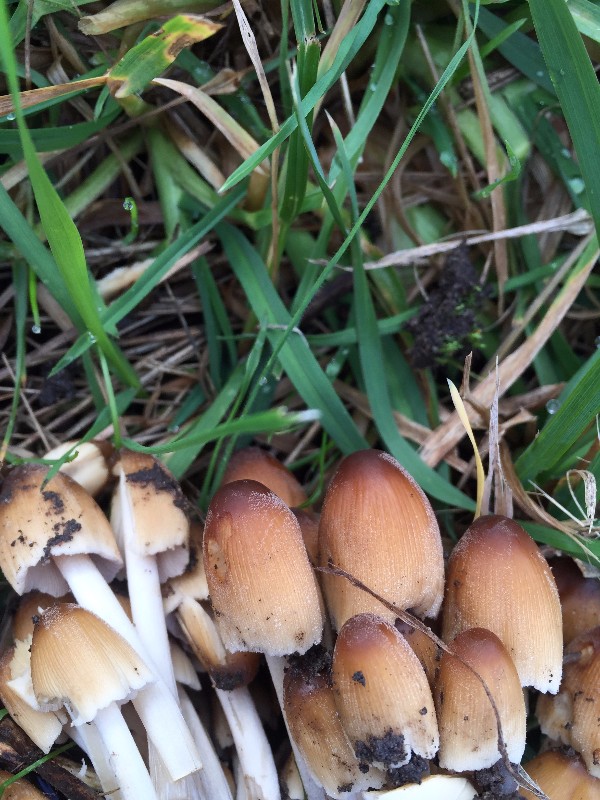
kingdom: Fungi
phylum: Basidiomycota
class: Agaricomycetes
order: Agaricales
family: Psathyrellaceae
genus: Coprinellus
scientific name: Coprinellus micaceus
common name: glimmer-blækhat
